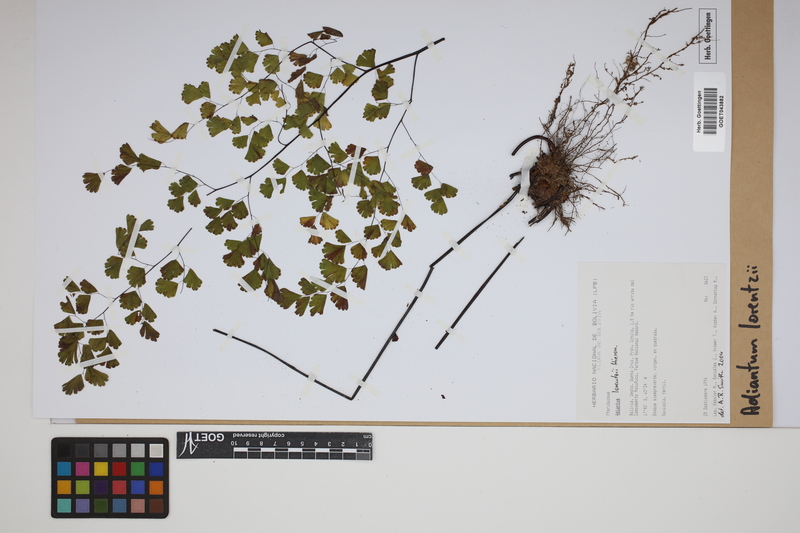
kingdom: Plantae
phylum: Tracheophyta
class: Polypodiopsida
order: Polypodiales
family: Pteridaceae
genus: Adiantum
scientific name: Adiantum lorentzii
